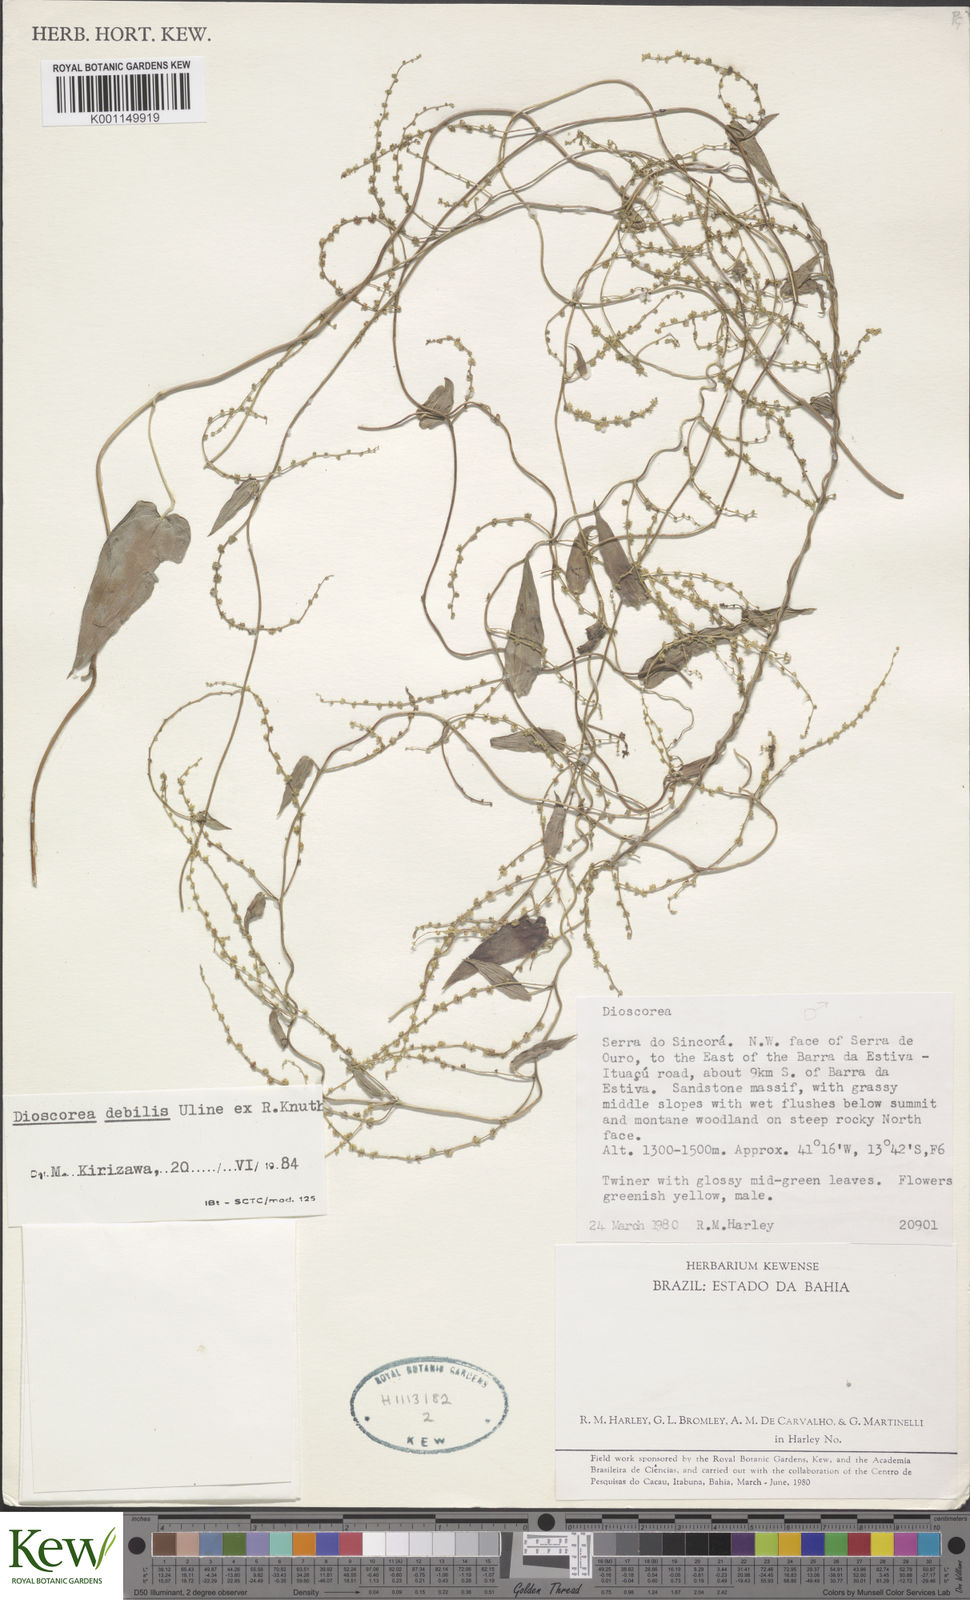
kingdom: Plantae
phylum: Tracheophyta
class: Liliopsida
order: Dioscoreales
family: Dioscoreaceae
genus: Dioscorea
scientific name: Dioscorea debilis
